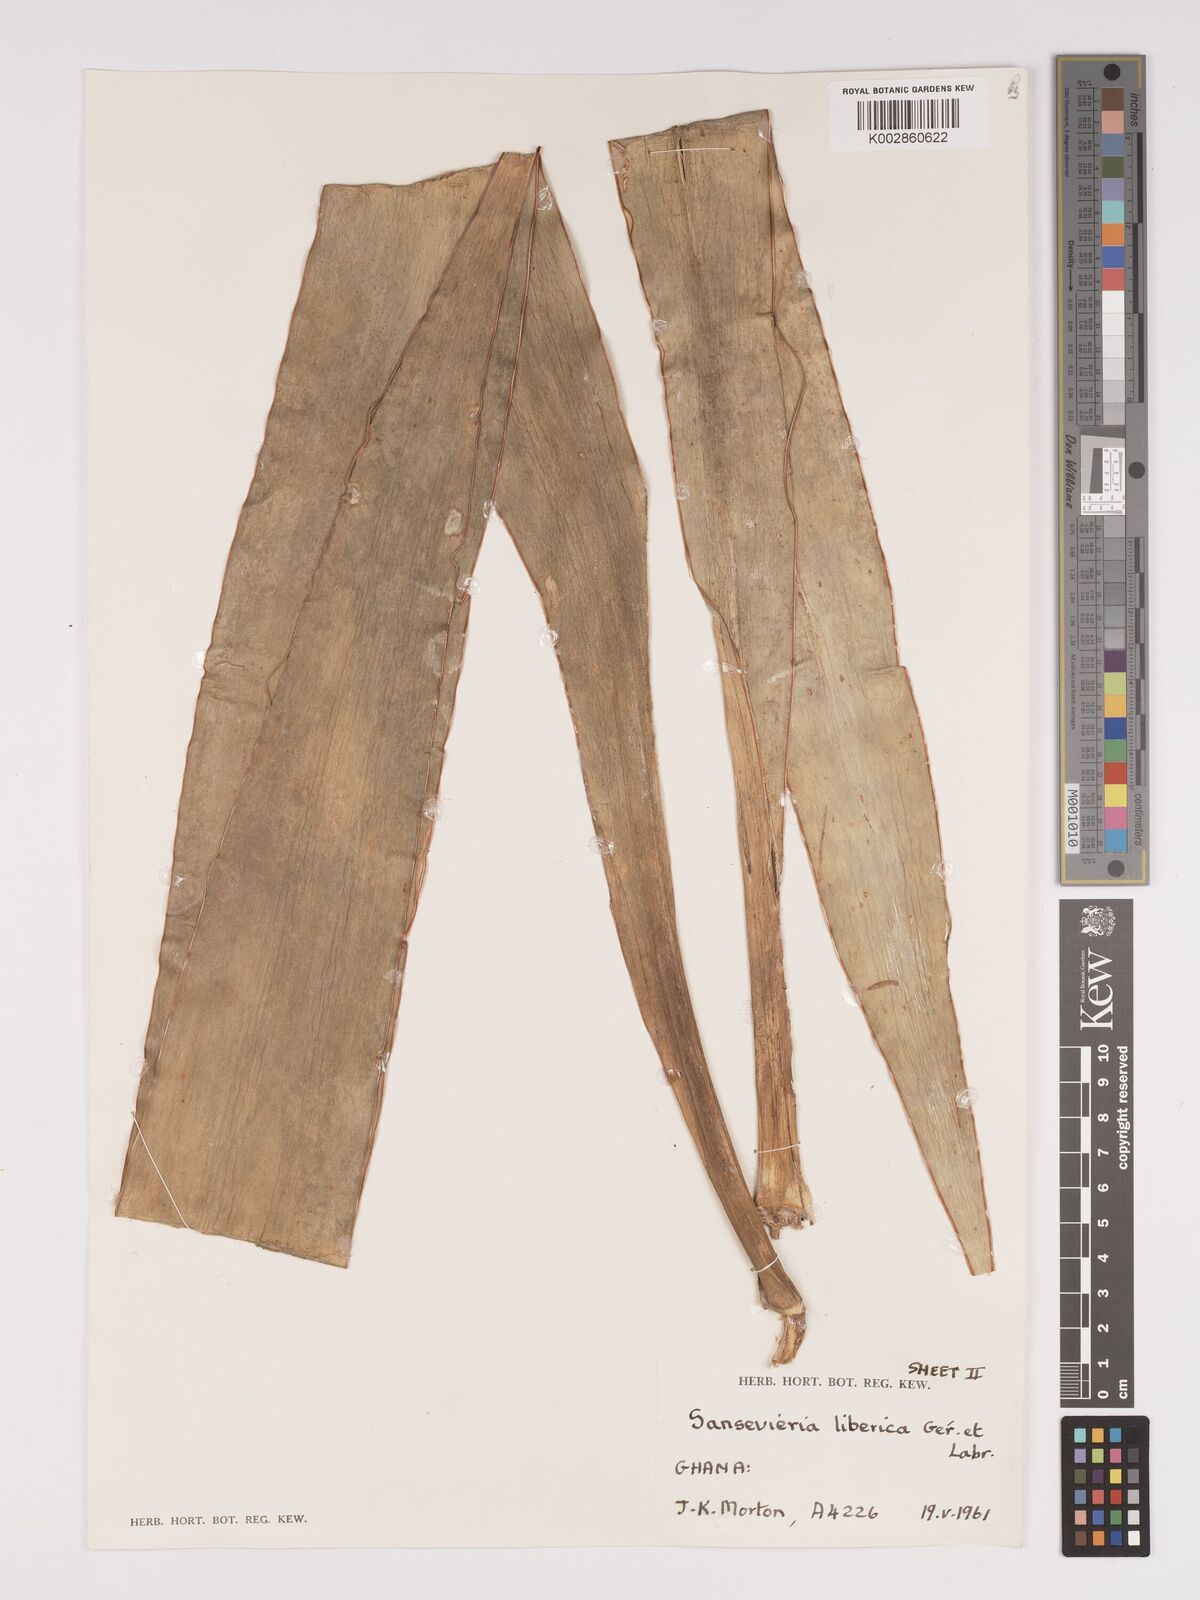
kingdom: Plantae
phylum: Tracheophyta
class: Liliopsida
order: Asparagales
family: Asparagaceae
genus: Dracaena
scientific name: Dracaena liberica
